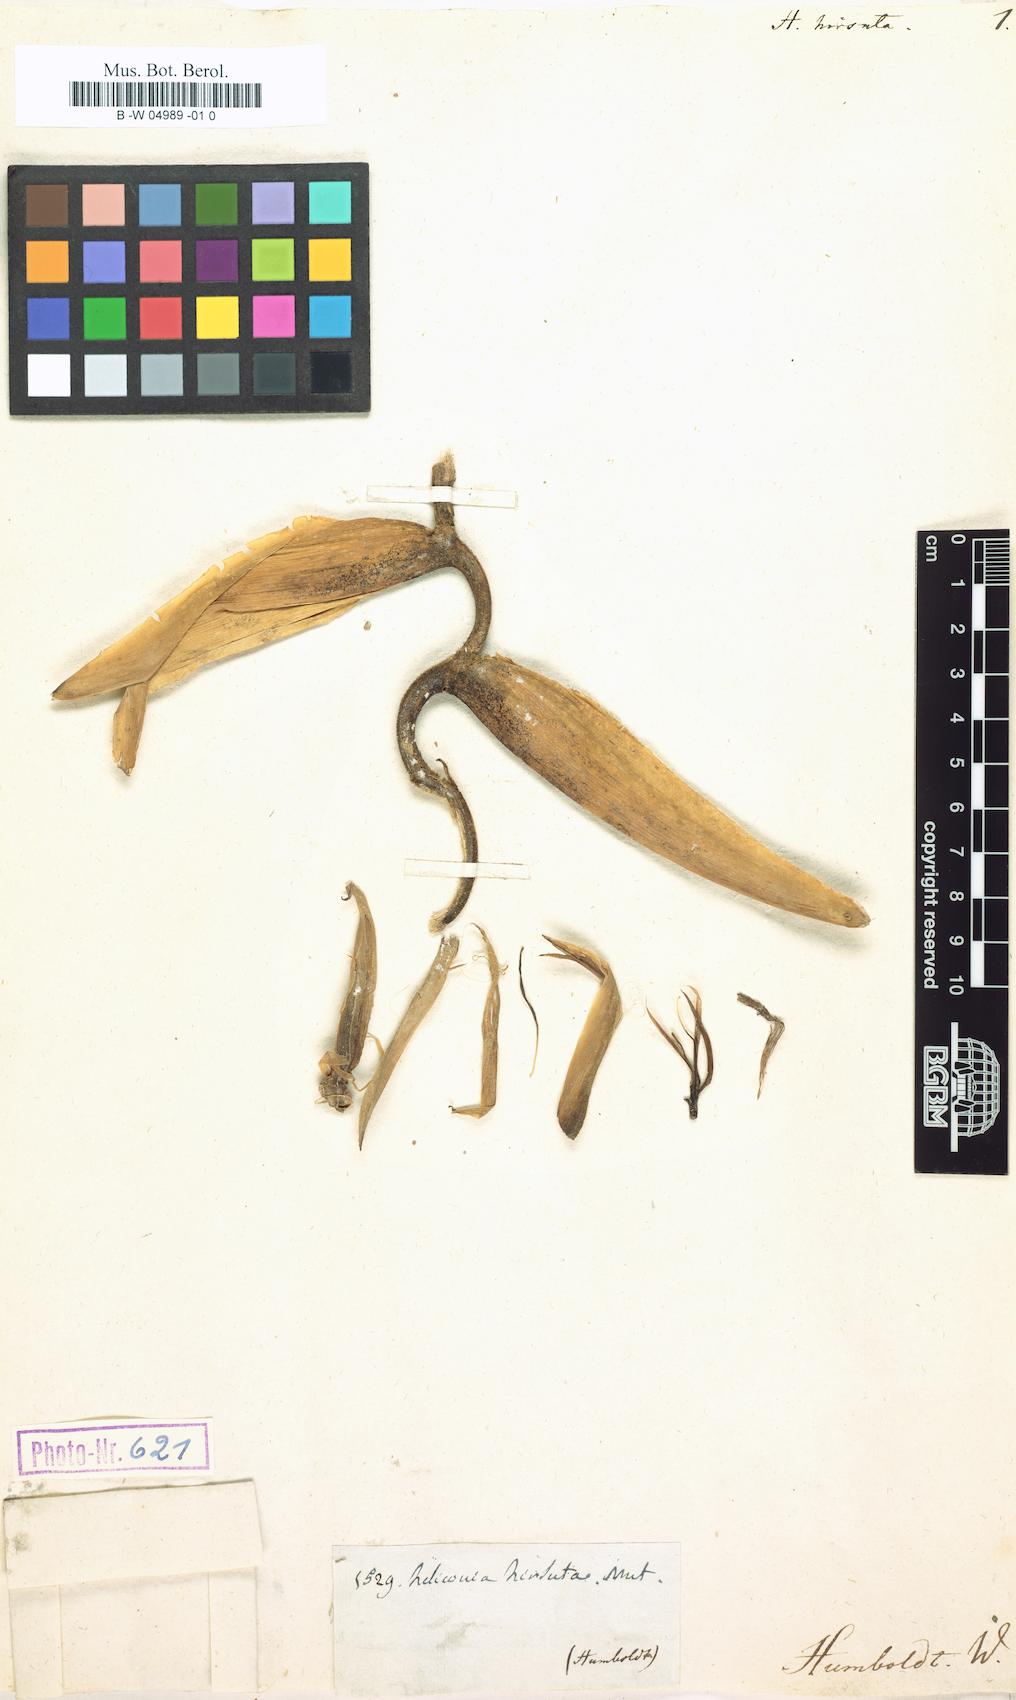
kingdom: Plantae
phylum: Tracheophyta
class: Liliopsida
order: Zingiberales
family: Heliconiaceae
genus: Heliconia
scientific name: Heliconia hirsuta
